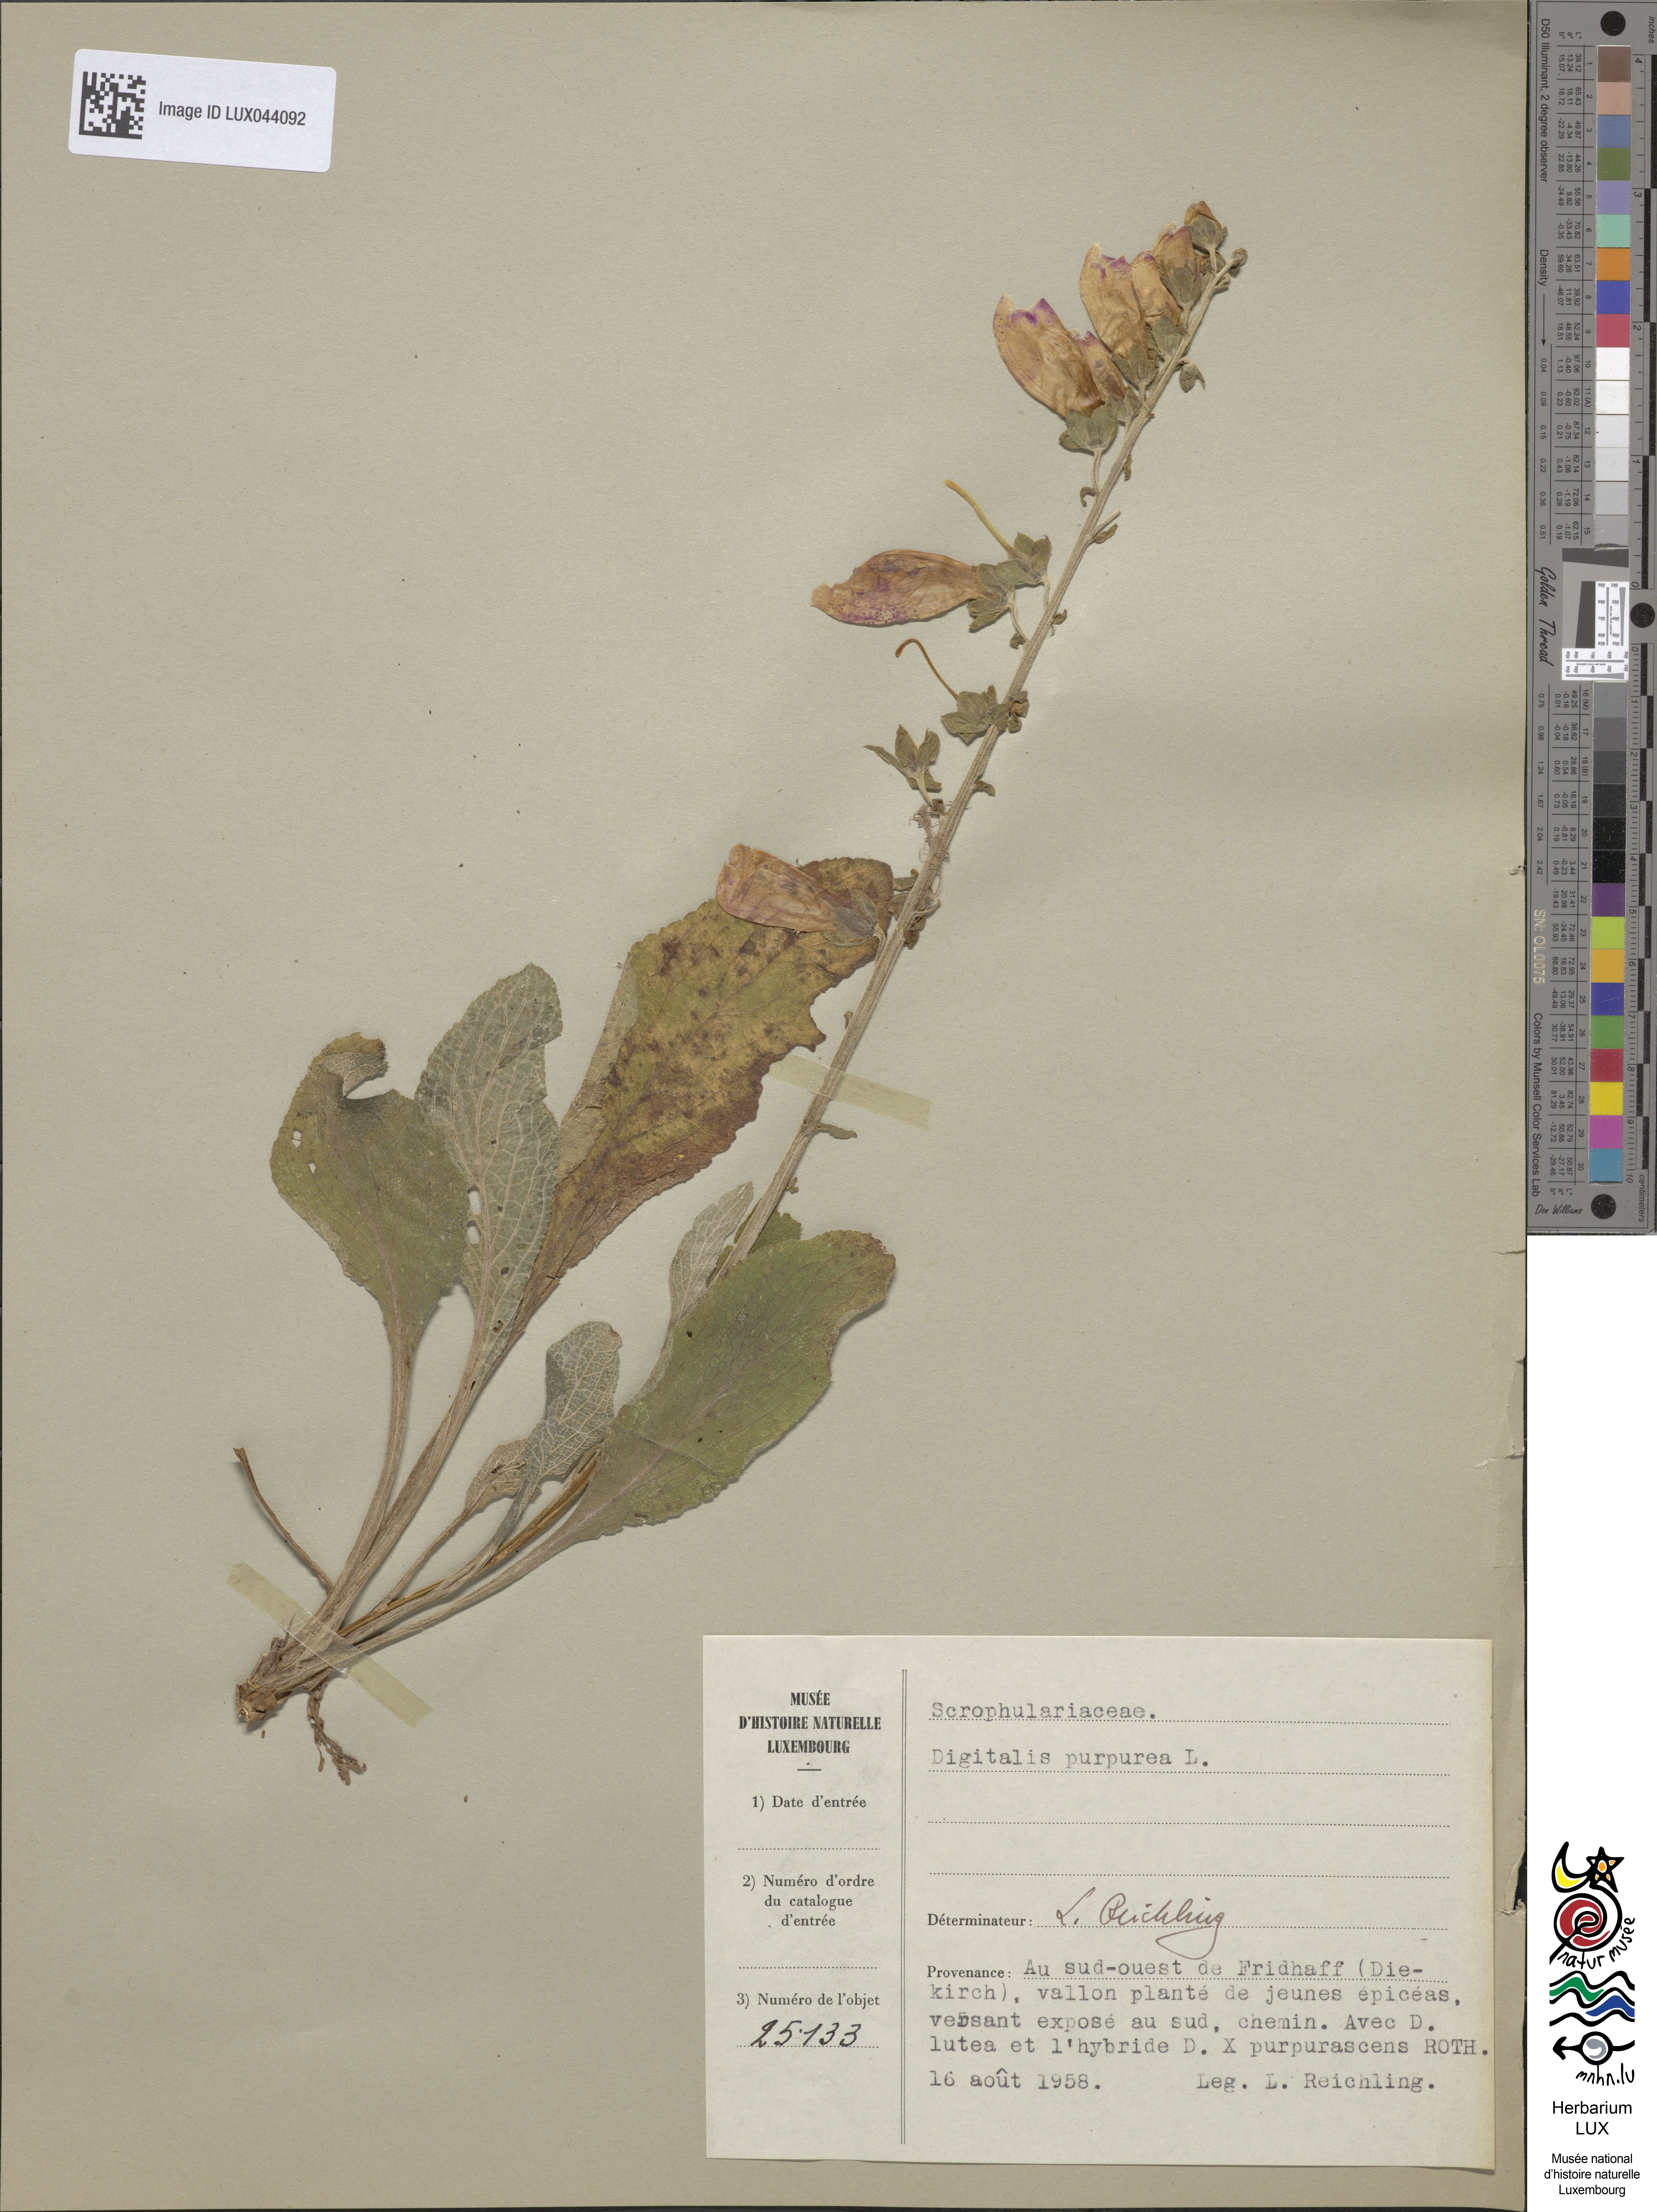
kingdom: Plantae
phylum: Tracheophyta
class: Magnoliopsida
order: Lamiales
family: Plantaginaceae
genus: Digitalis
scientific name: Digitalis purpurea
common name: Foxglove
